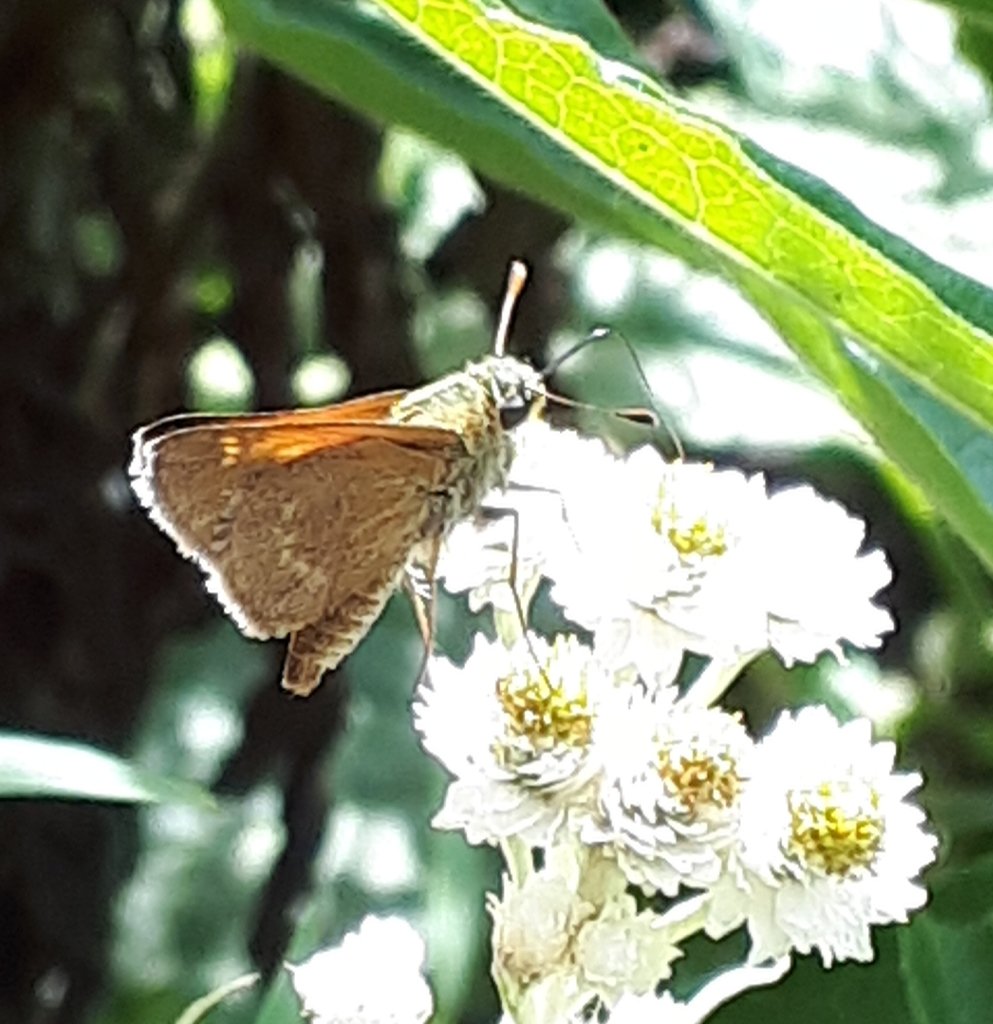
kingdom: Animalia
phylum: Arthropoda
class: Insecta
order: Lepidoptera
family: Hesperiidae
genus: Polites
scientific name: Polites themistocles
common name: Tawny-edged Skipper
